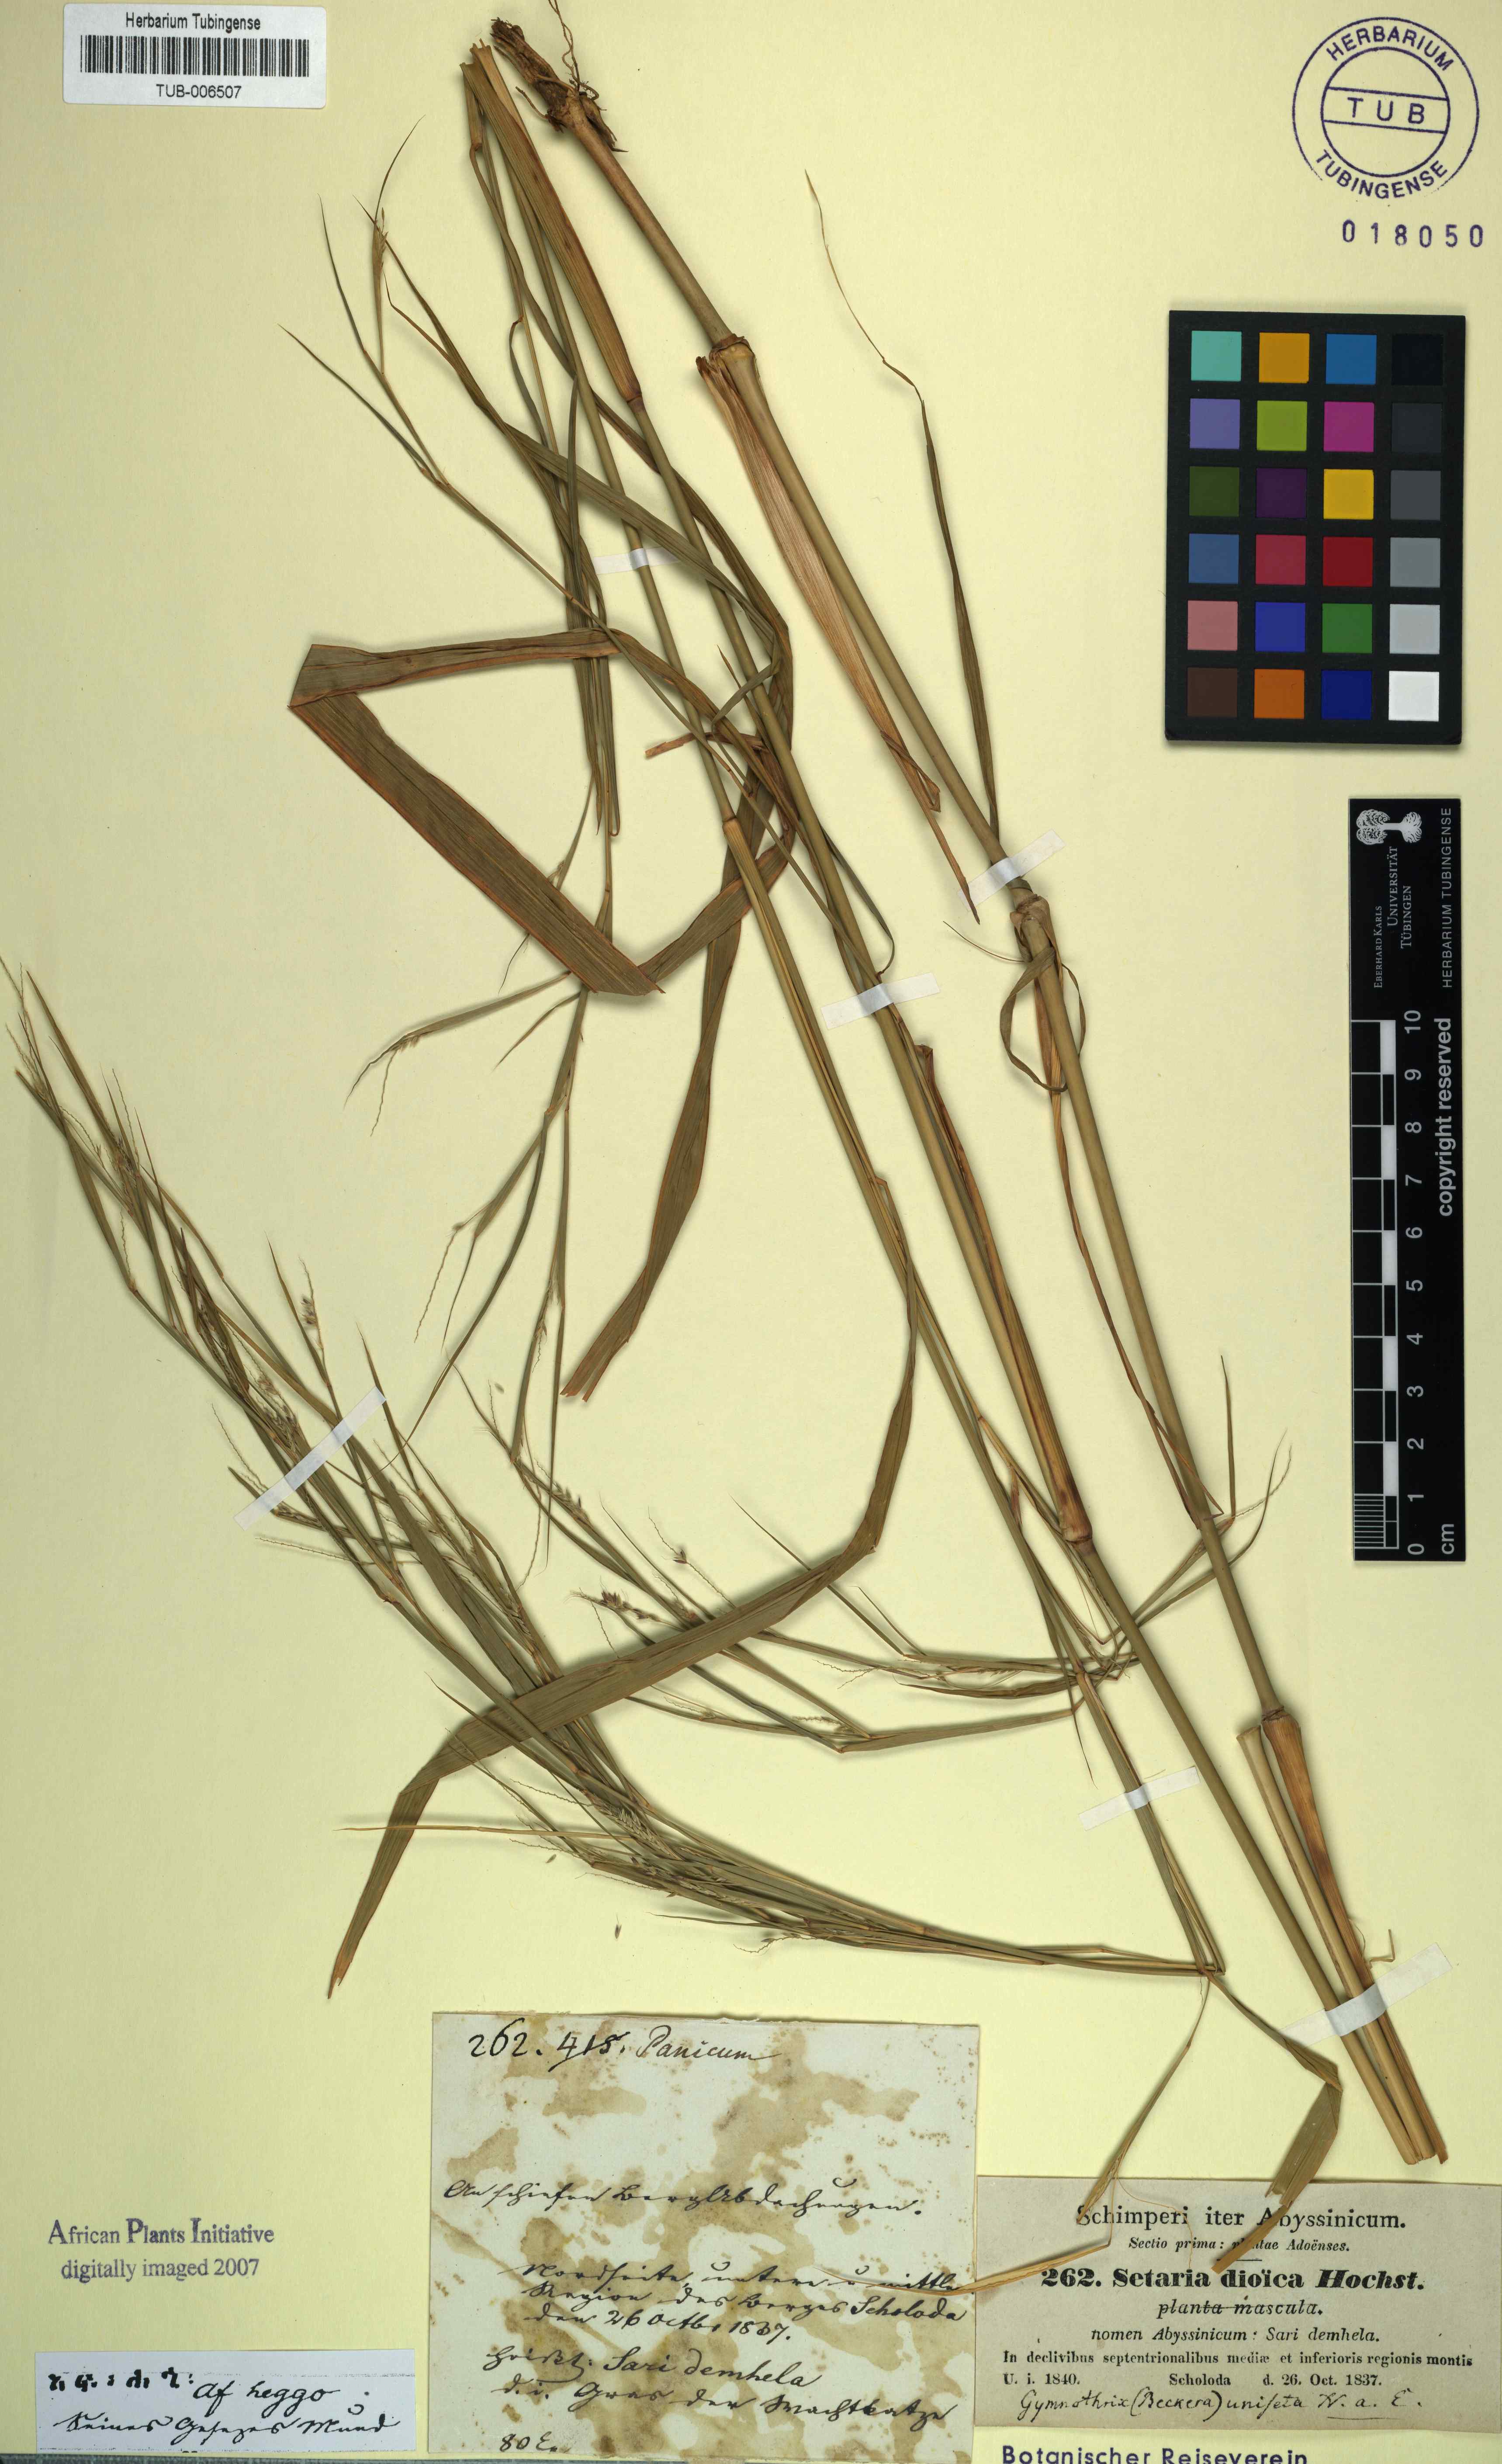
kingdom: Plantae
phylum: Tracheophyta
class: Liliopsida
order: Poales
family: Poaceae
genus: Cenchrus
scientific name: Cenchrus petiolaris
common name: Grass
